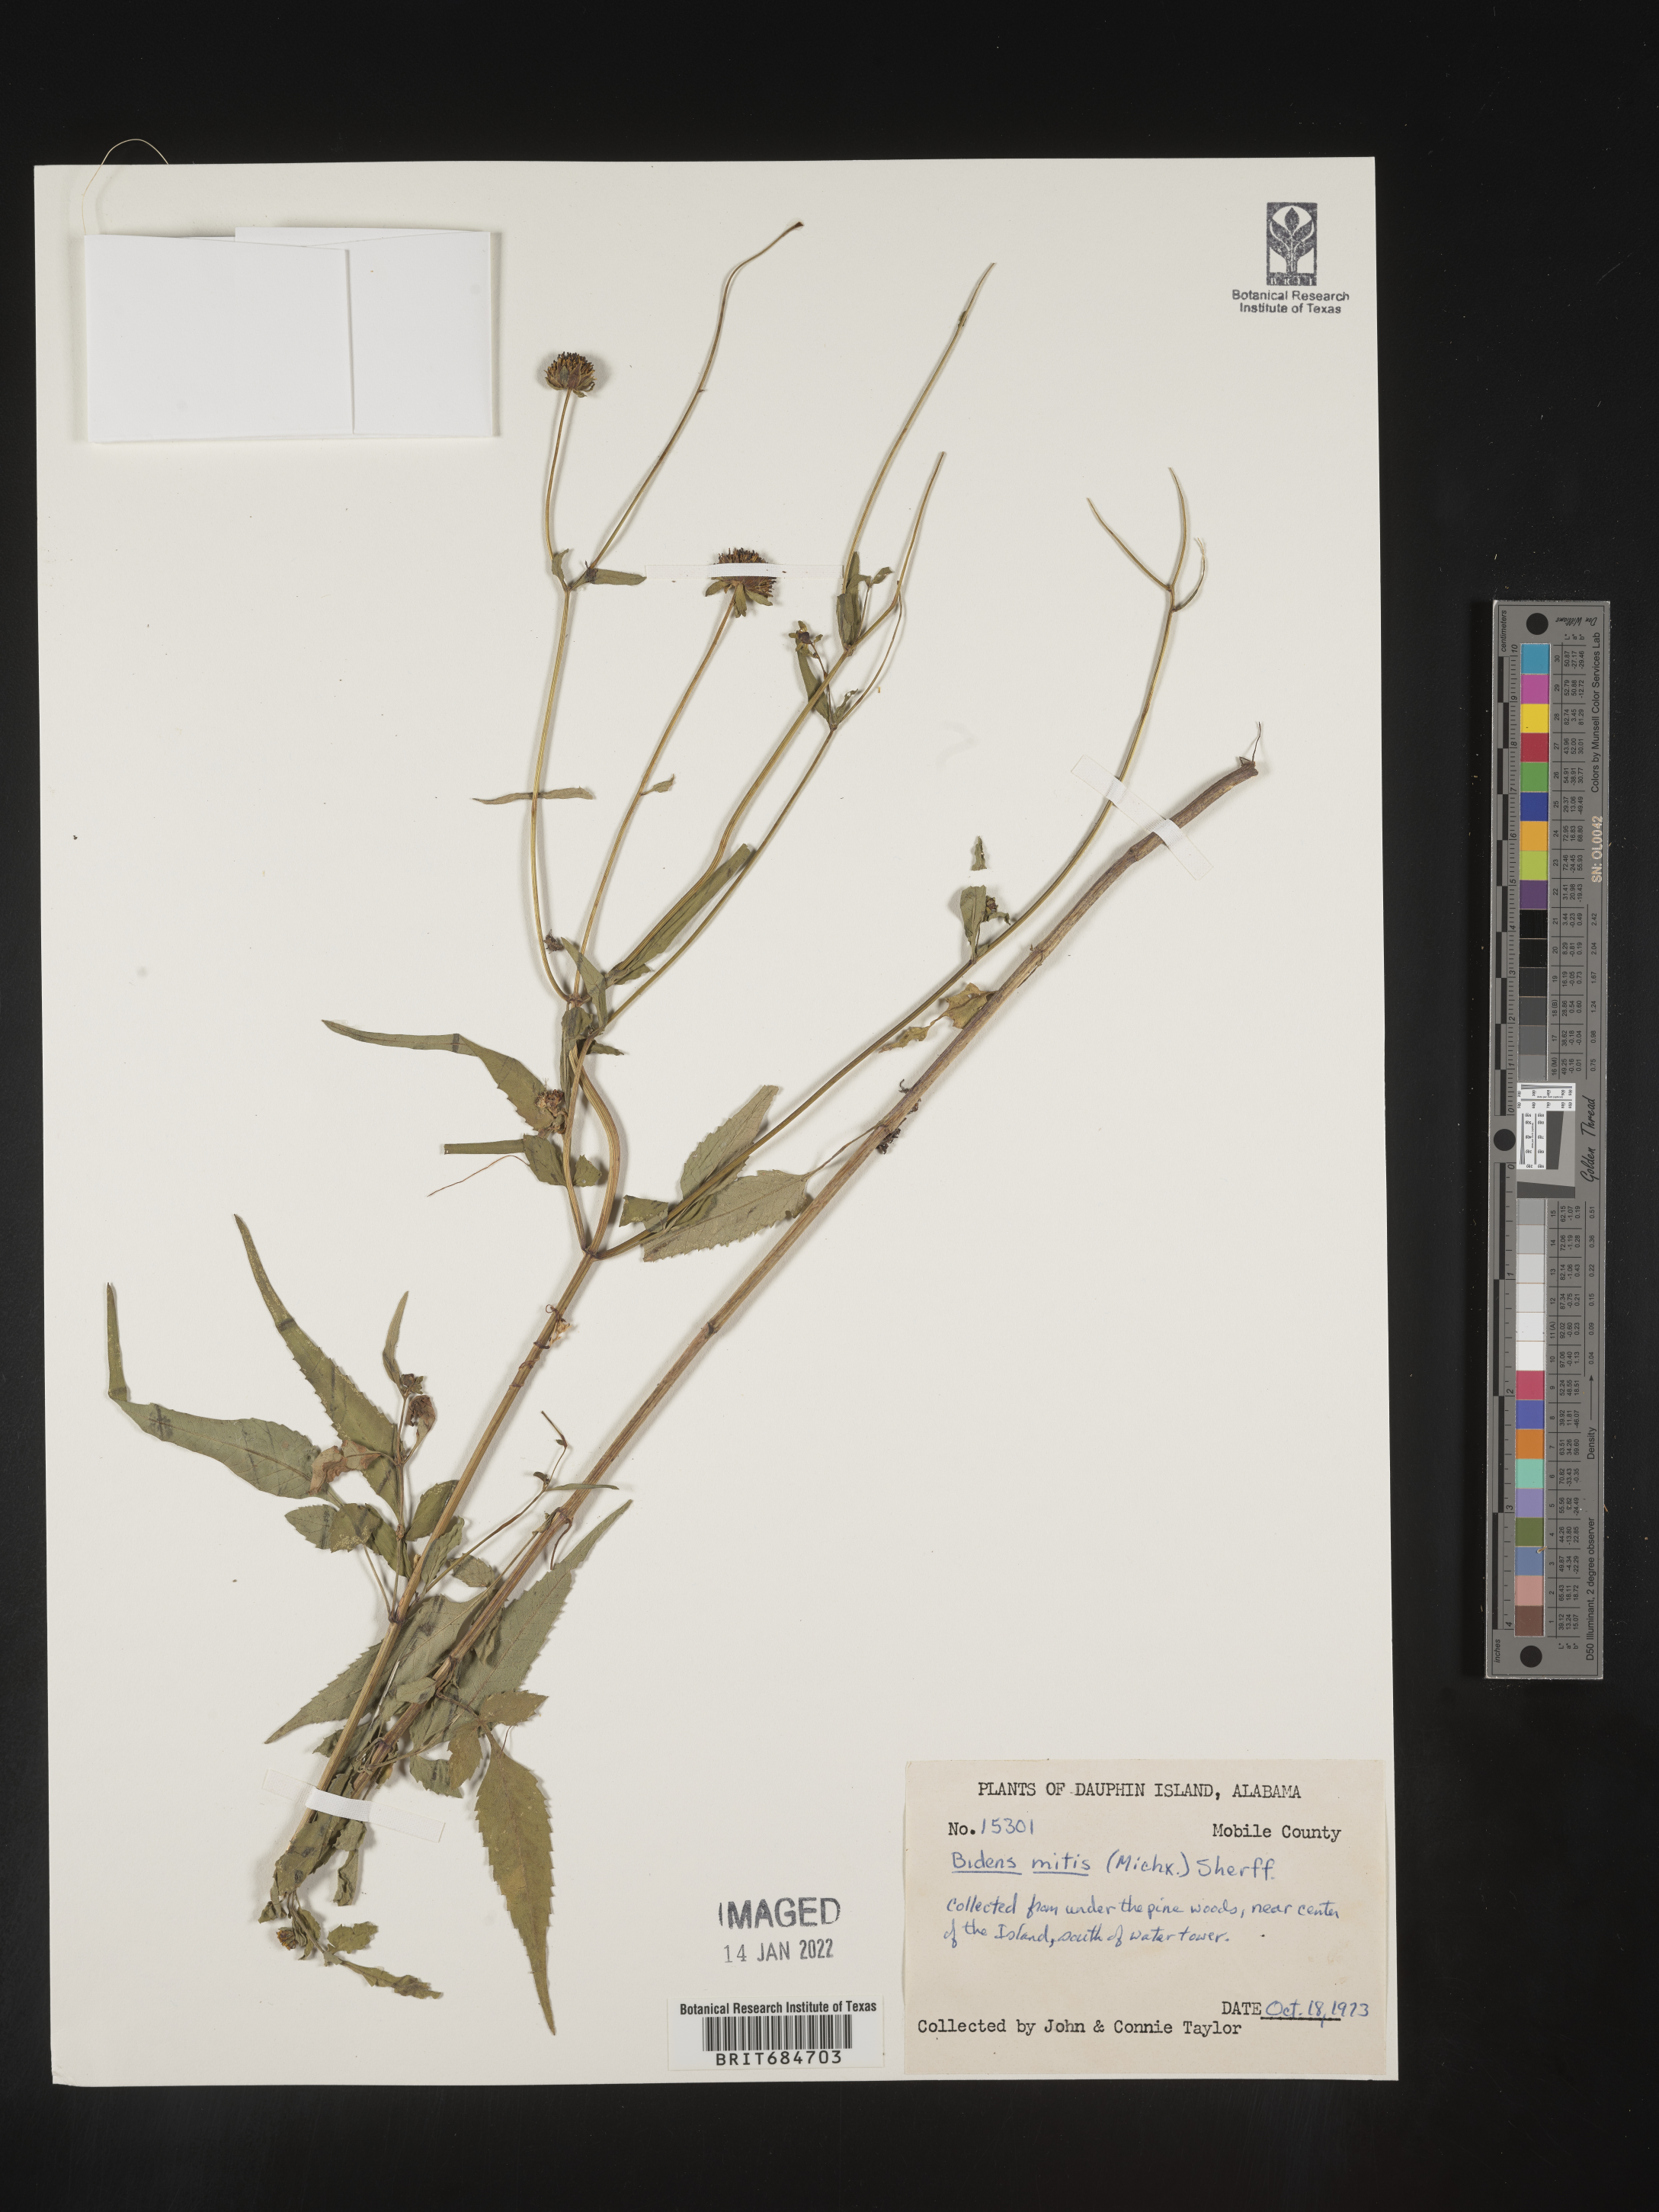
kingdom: Plantae
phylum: Tracheophyta
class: Magnoliopsida
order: Asterales
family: Asteraceae
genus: Bidens
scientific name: Bidens mitis
